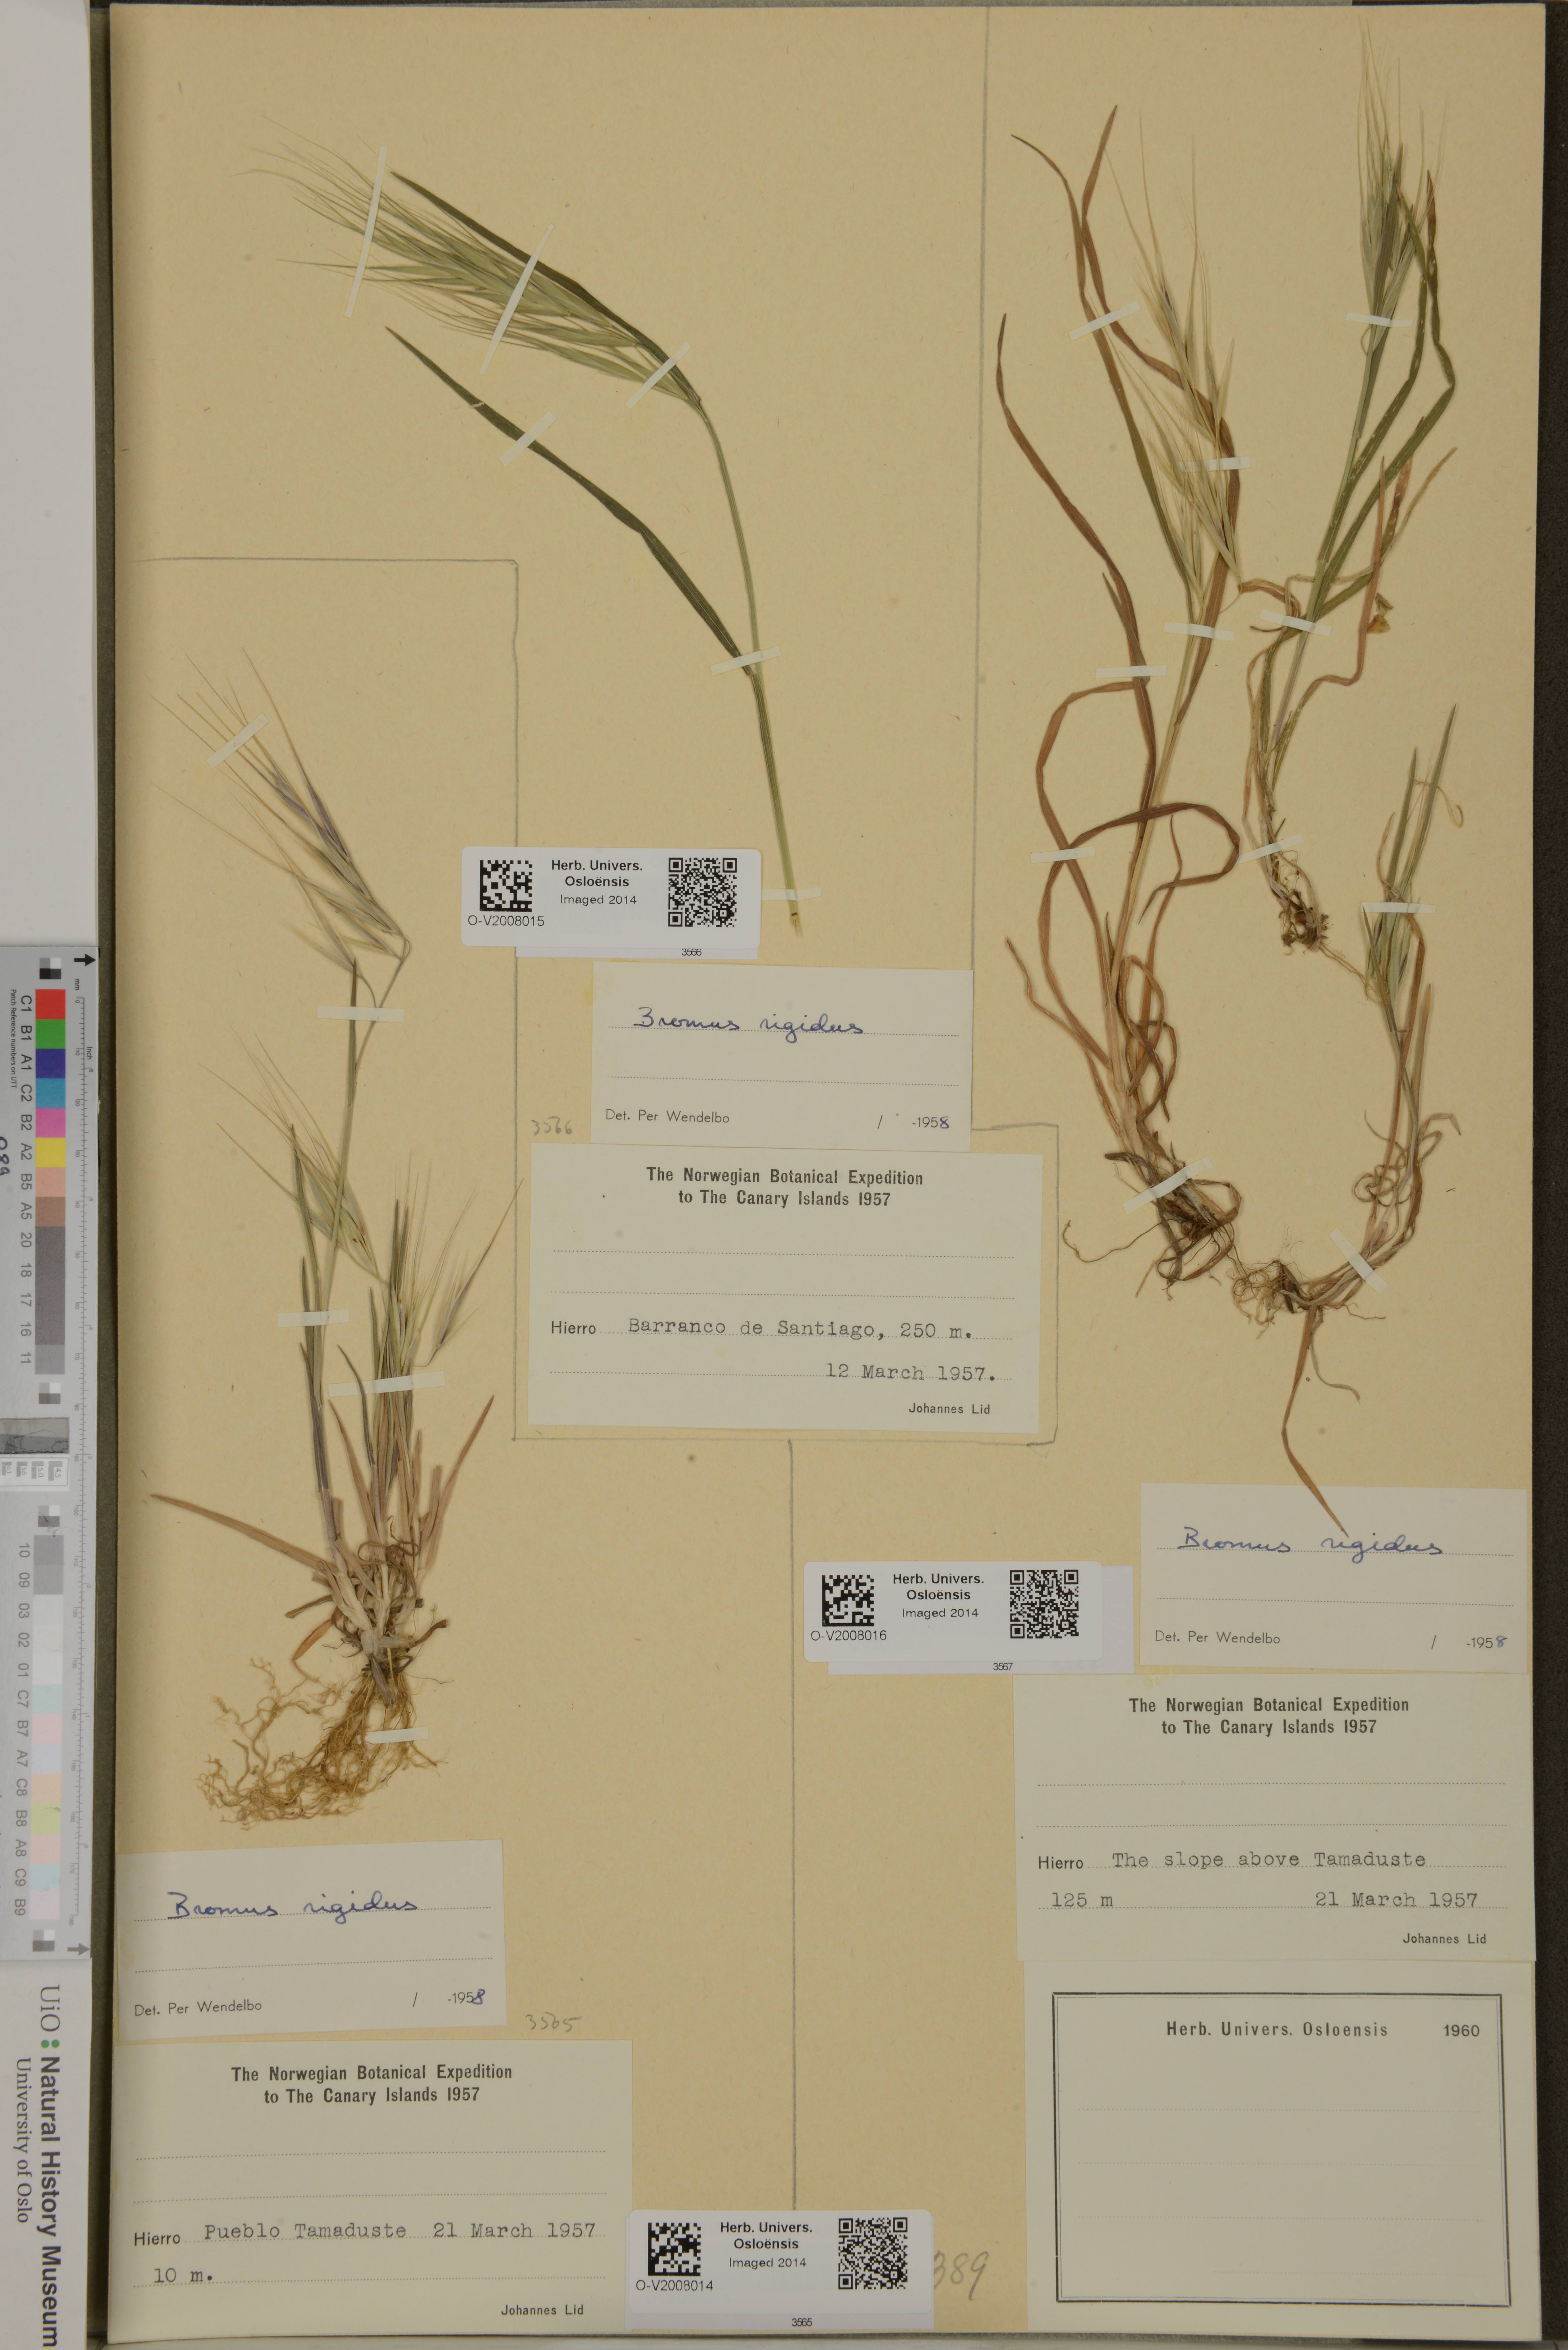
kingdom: Plantae
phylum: Tracheophyta
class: Liliopsida
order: Poales
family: Poaceae
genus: Bromus
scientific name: Bromus rigidus
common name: Ripgut brome
